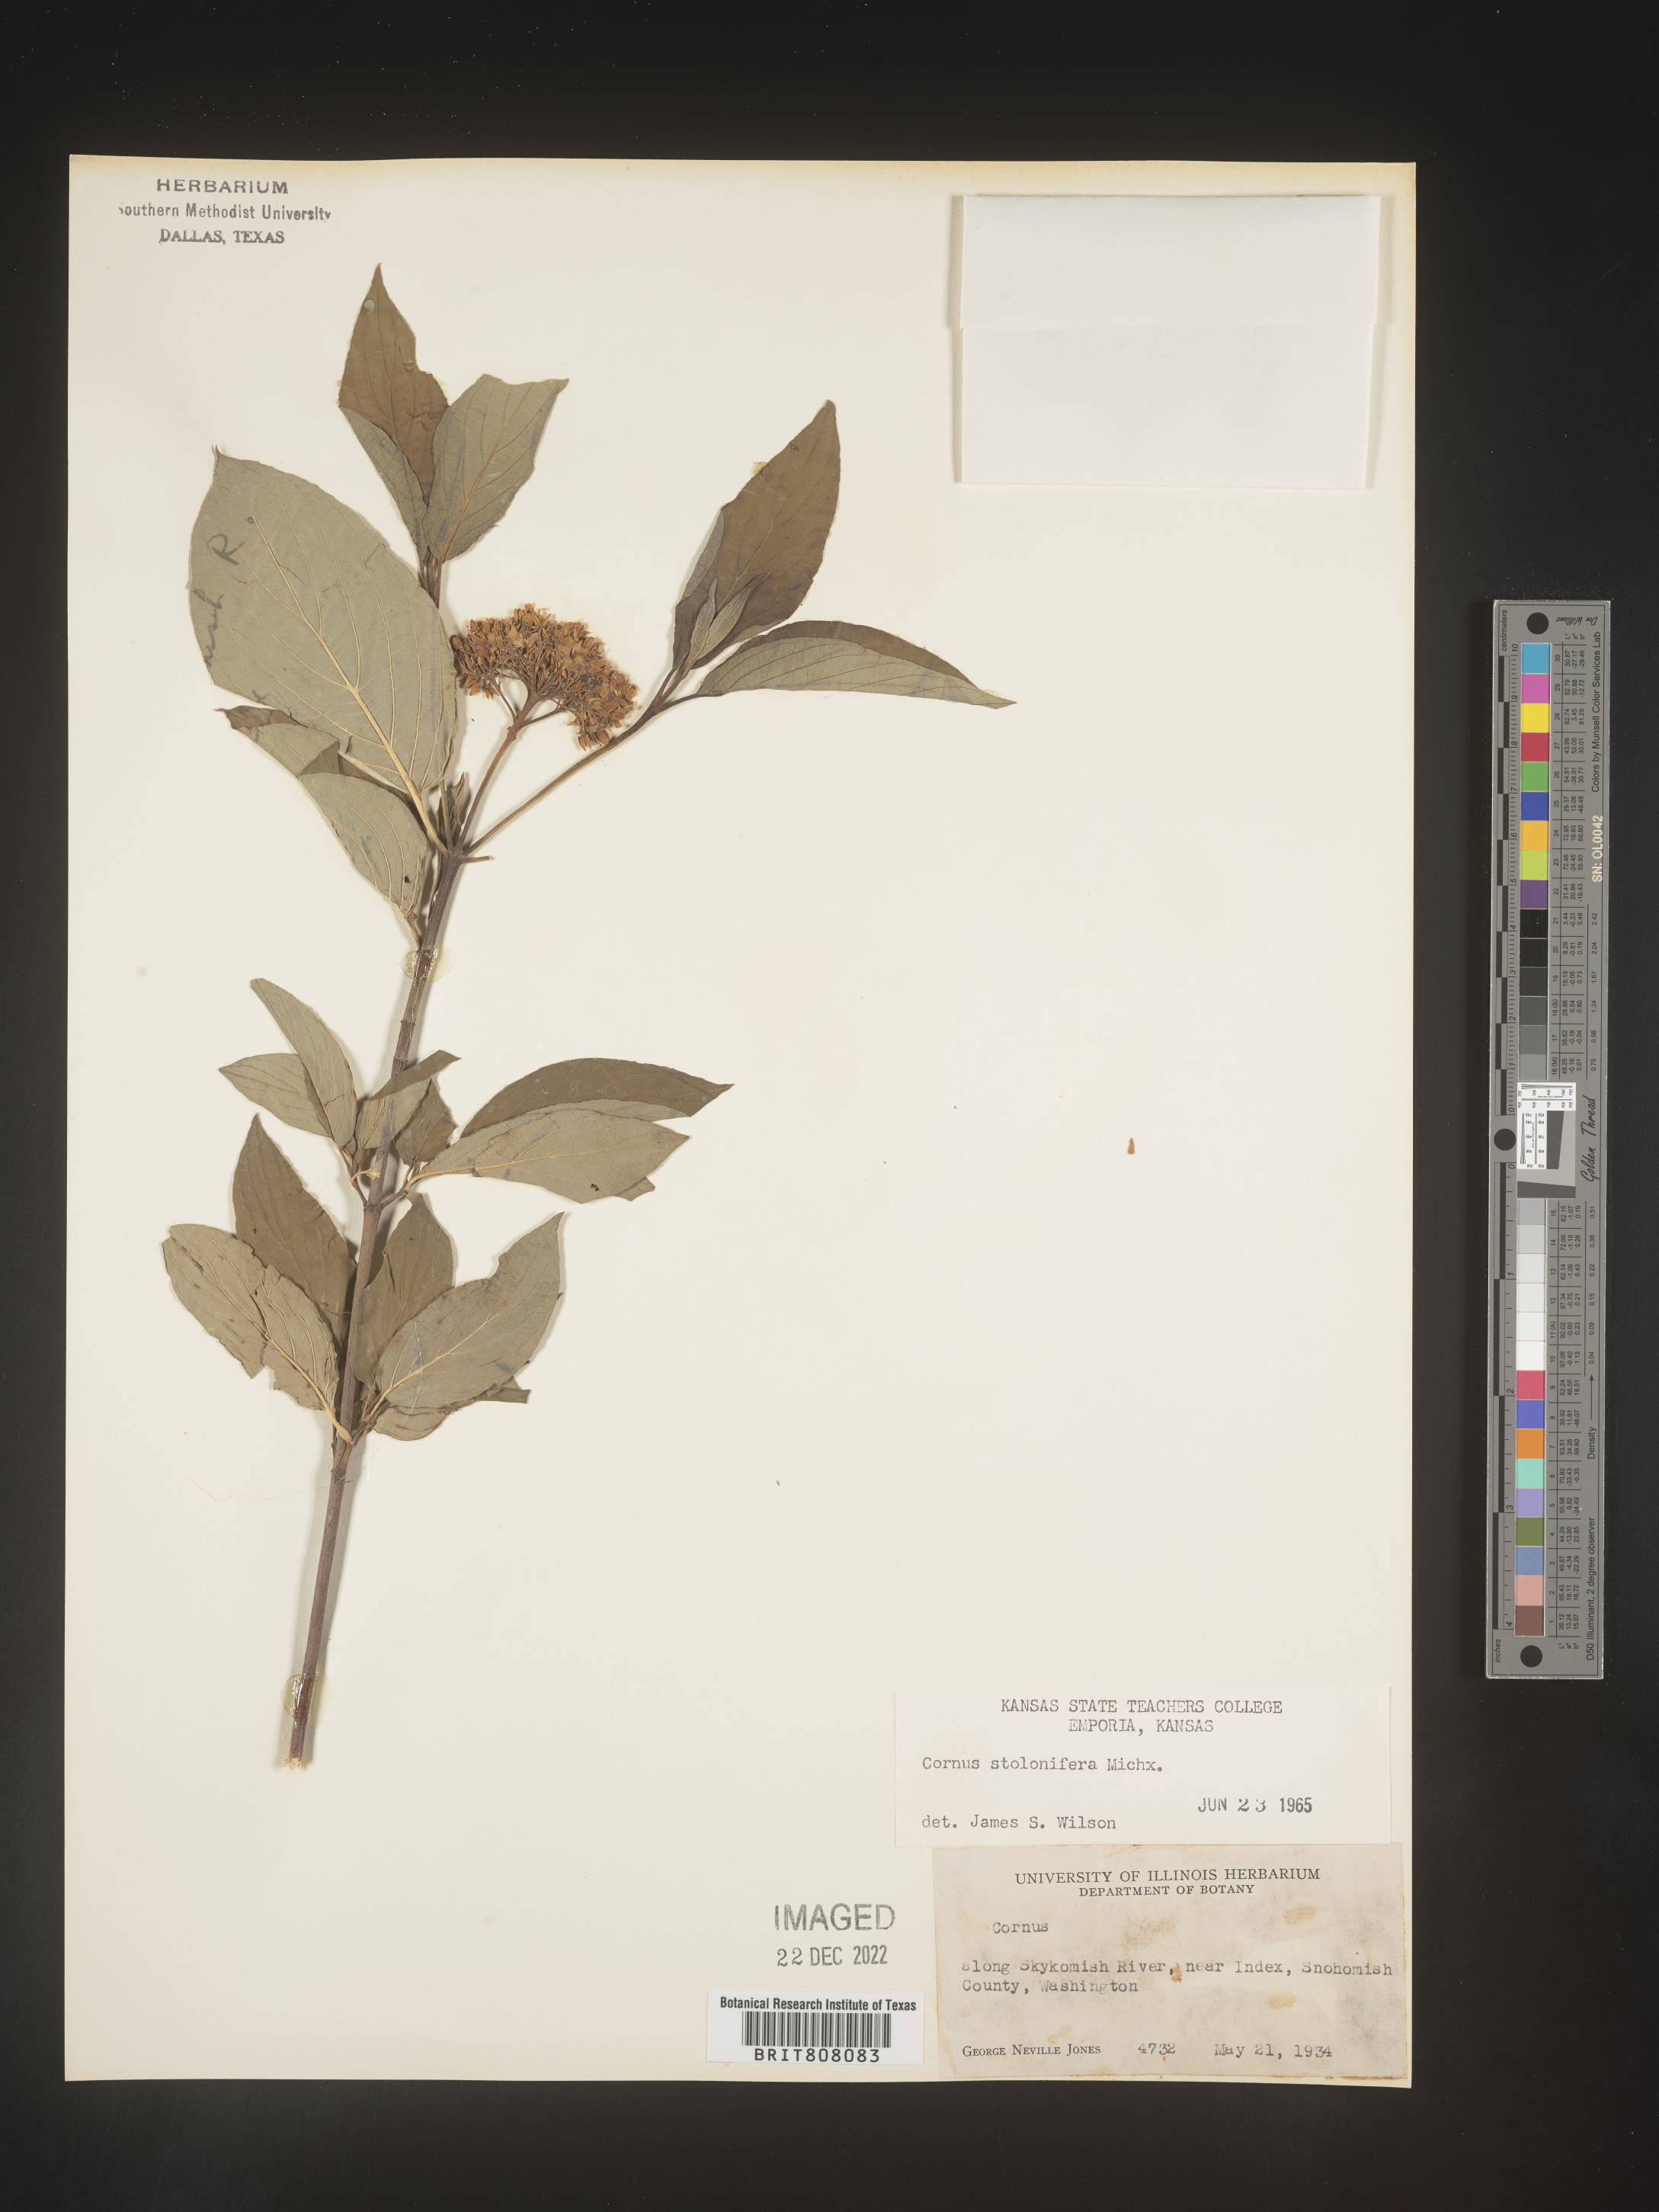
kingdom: Plantae
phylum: Tracheophyta
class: Magnoliopsida
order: Cornales
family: Cornaceae
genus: Cornus
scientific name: Cornus sericea
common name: Red-osier dogwood
